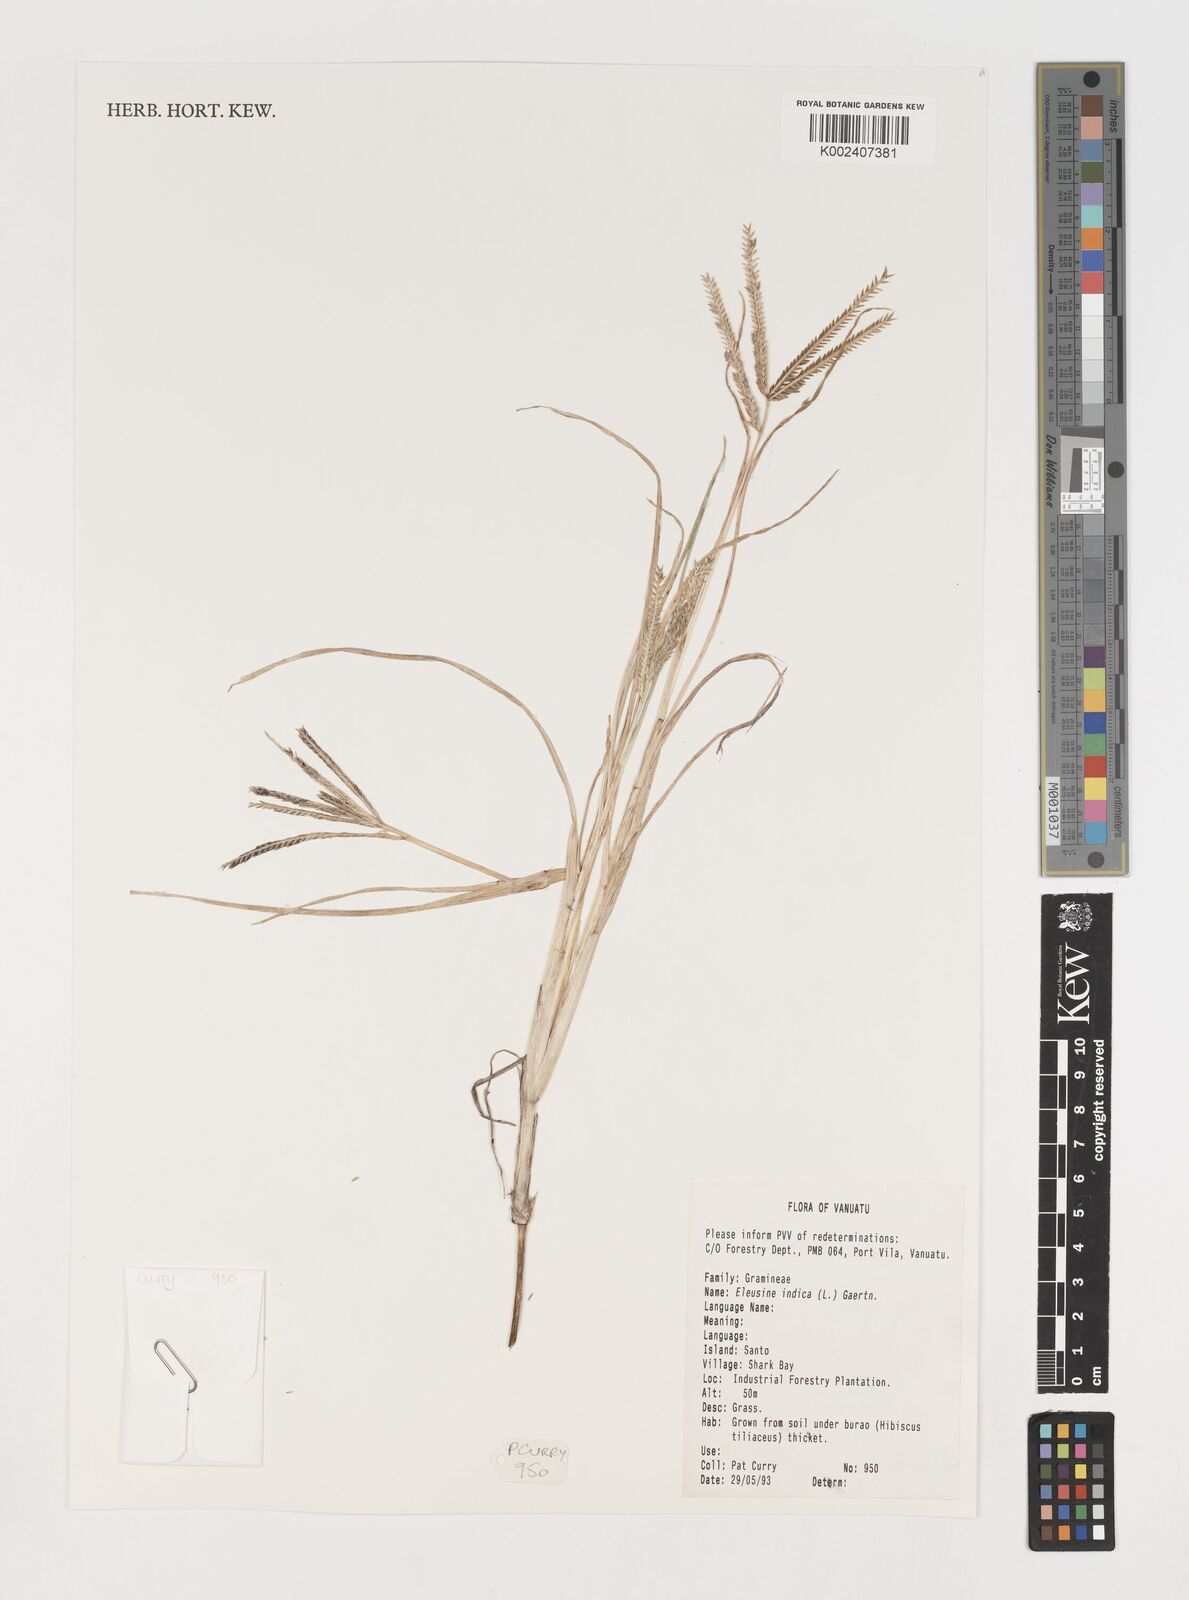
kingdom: Plantae
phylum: Tracheophyta
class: Liliopsida
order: Poales
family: Poaceae
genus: Eleusine
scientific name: Eleusine indica
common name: Yard-grass
